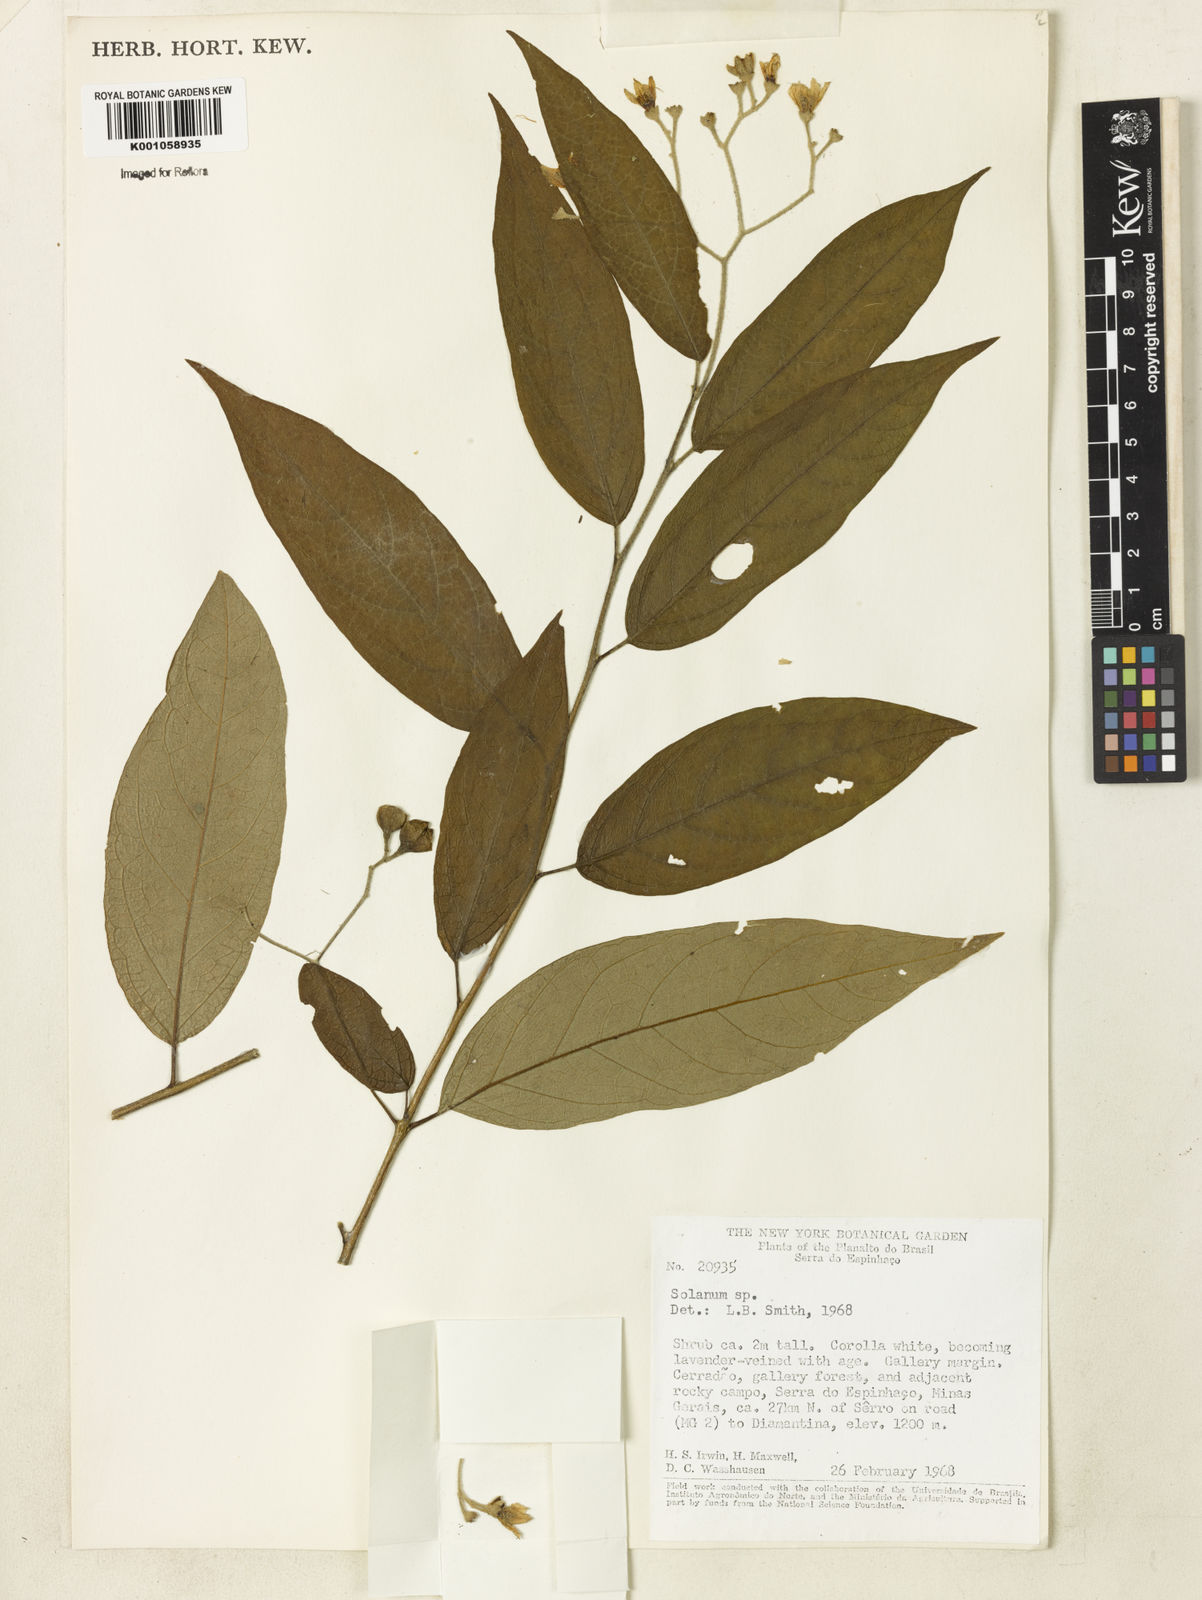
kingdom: Plantae
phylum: Tracheophyta
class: Magnoliopsida
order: Solanales
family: Solanaceae
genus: Solanum
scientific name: Solanum bullatum
